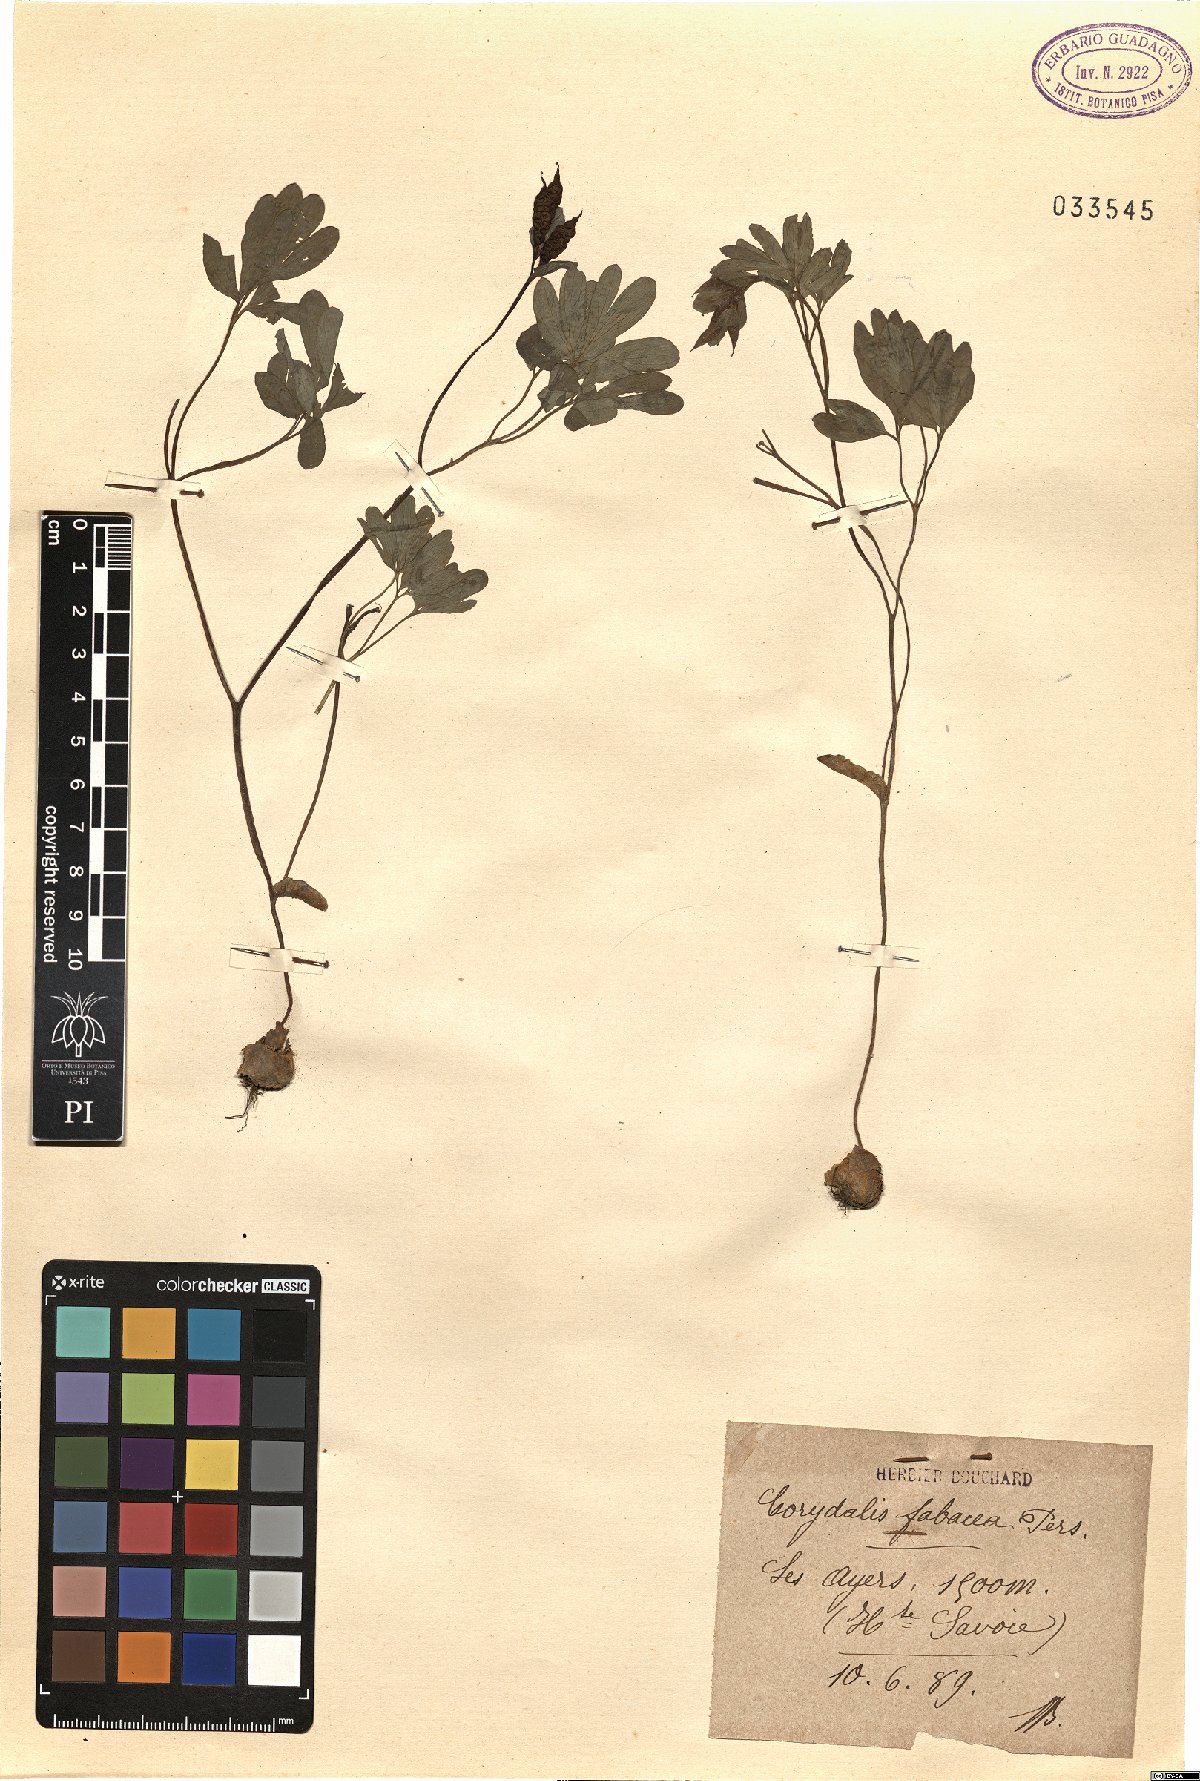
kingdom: Plantae
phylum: Tracheophyta
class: Magnoliopsida
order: Ranunculales
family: Papaveraceae
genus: Corydalis
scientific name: Corydalis intermedia
